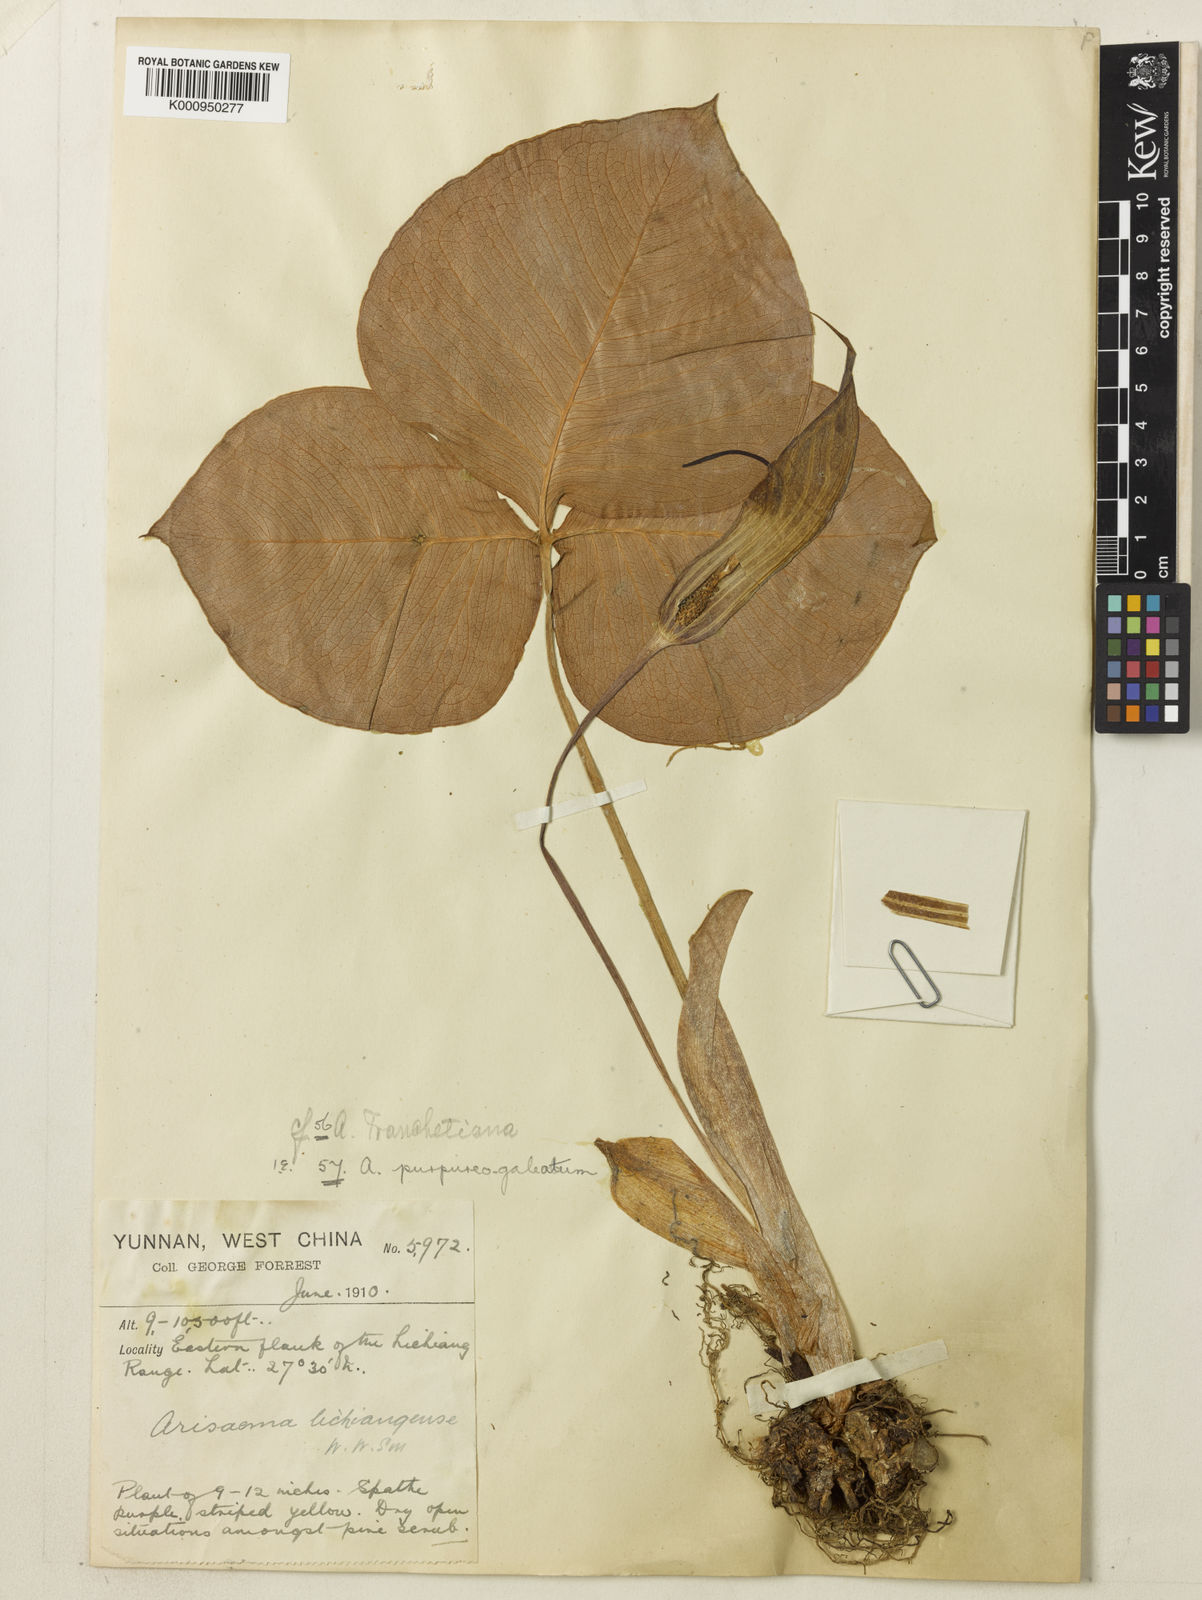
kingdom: Plantae
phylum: Tracheophyta
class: Liliopsida
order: Alismatales
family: Araceae
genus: Arisaema
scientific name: Arisaema lichiangense
